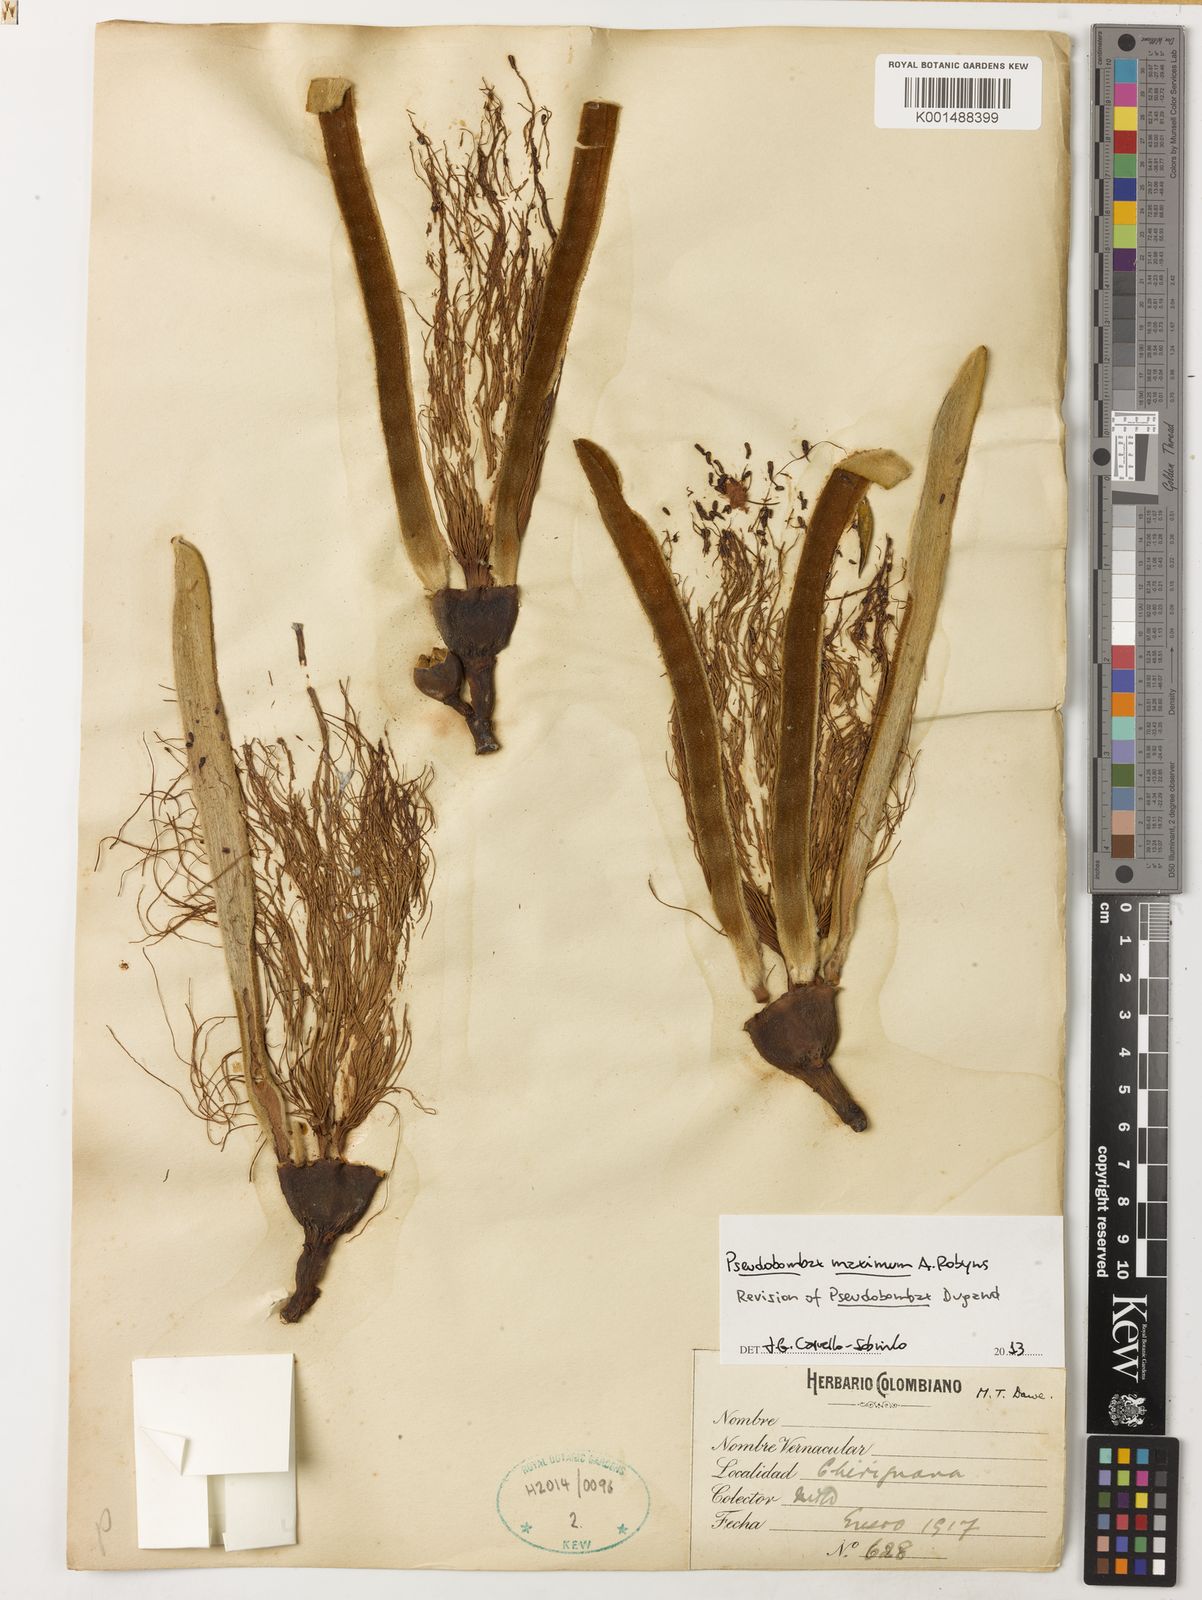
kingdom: Plantae
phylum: Tracheophyta
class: Magnoliopsida
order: Malvales
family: Malvaceae
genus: Pseudobombax
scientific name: Pseudobombax maximum
